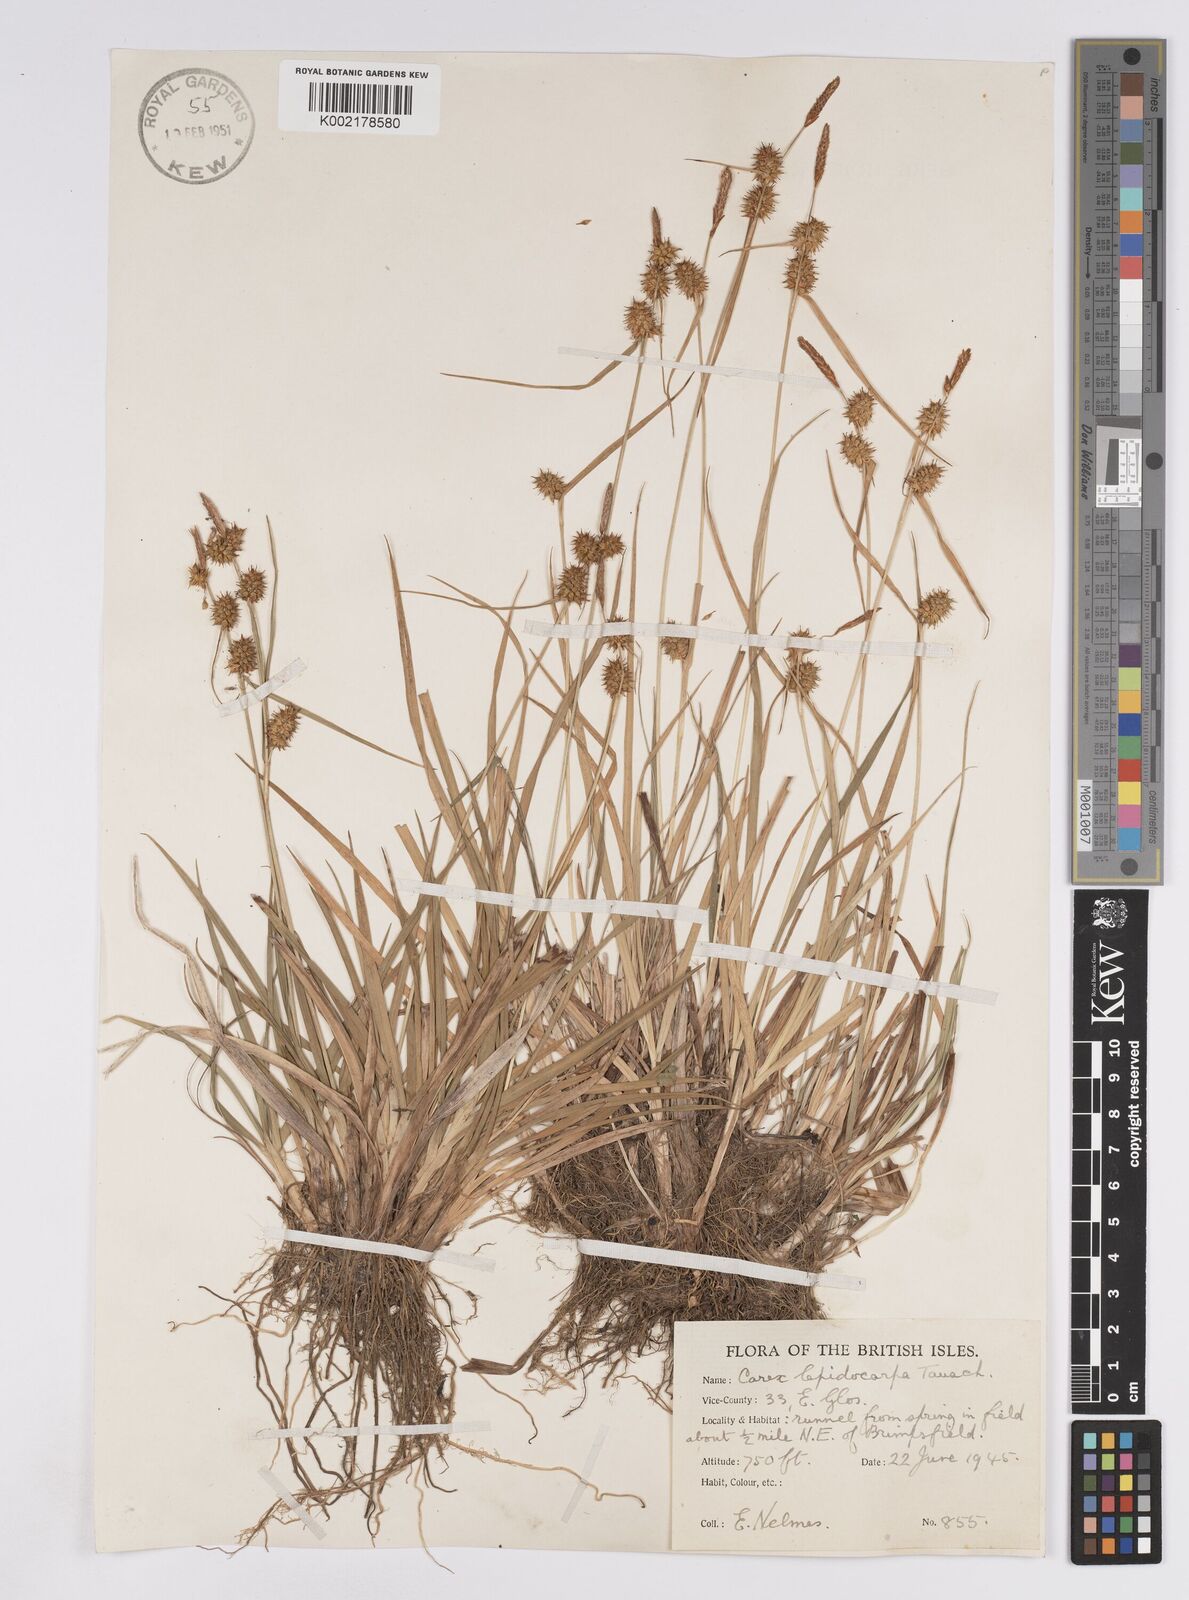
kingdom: Plantae
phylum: Tracheophyta
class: Liliopsida
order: Poales
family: Cyperaceae
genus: Carex
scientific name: Carex lepidocarpa
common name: Long-stalked yellow-sedge
